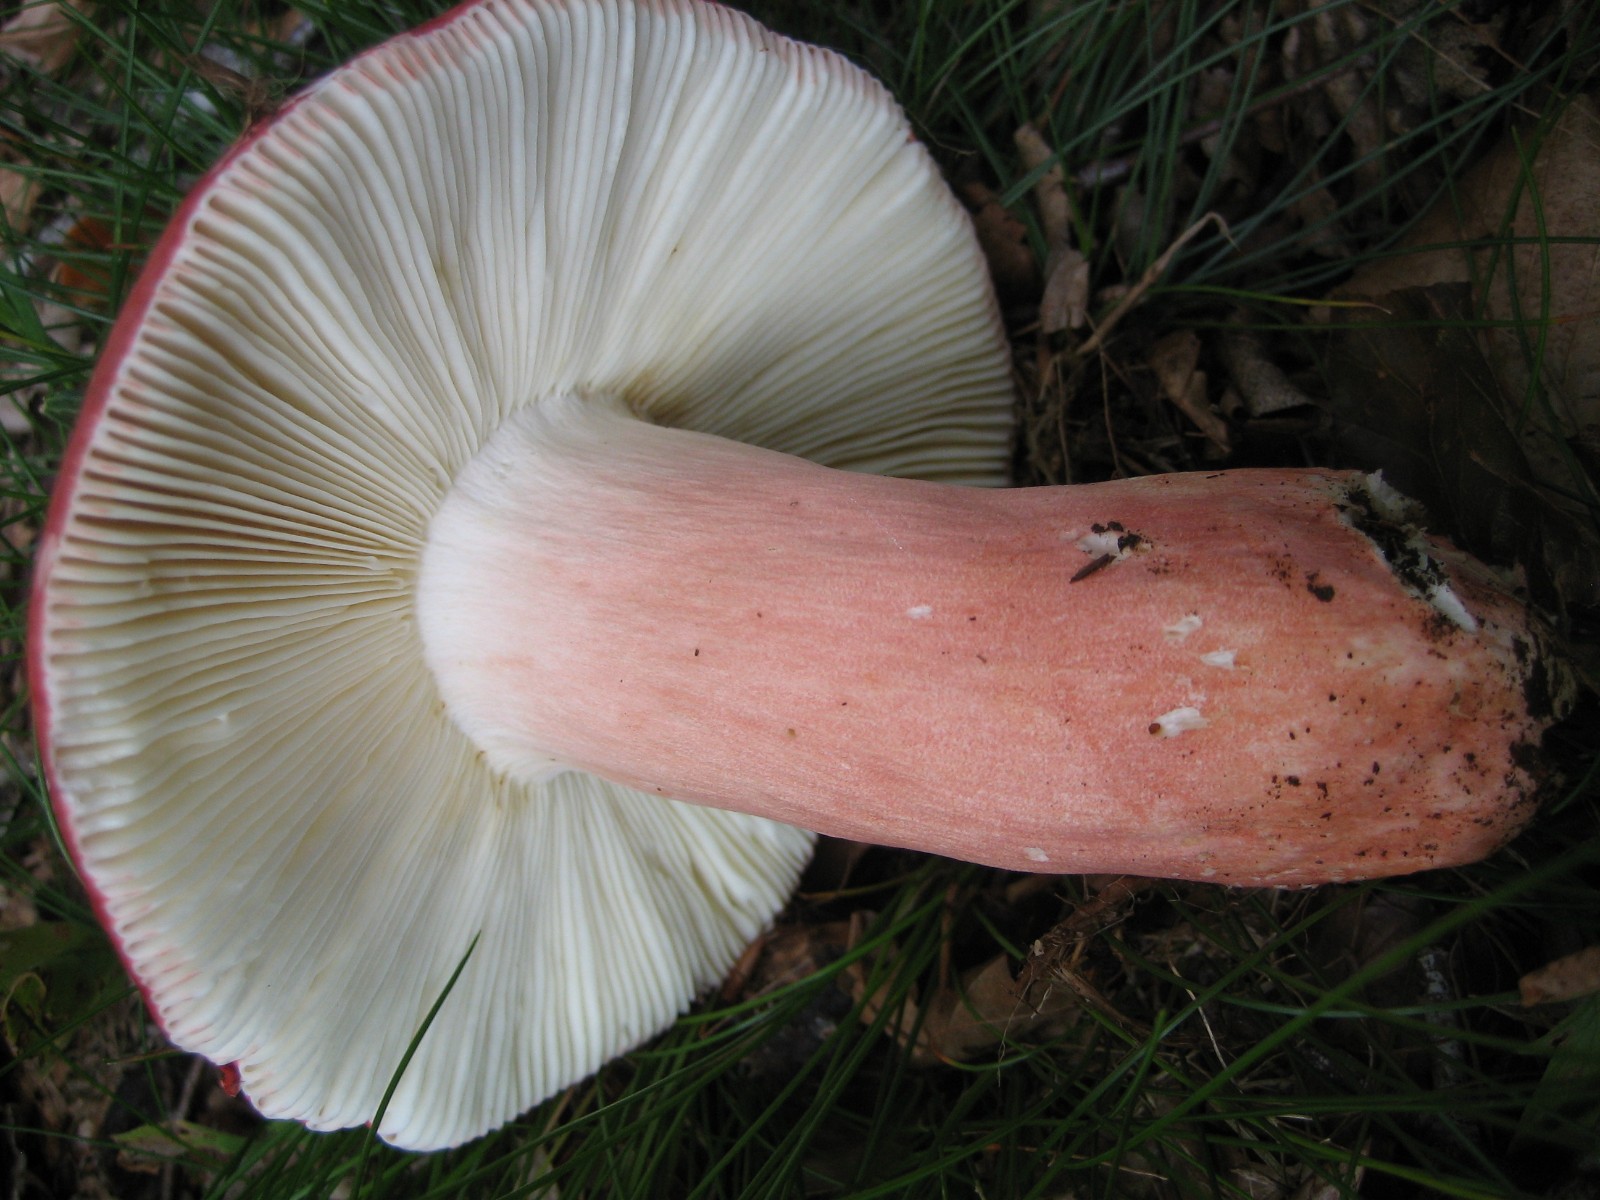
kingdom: Fungi
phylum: Basidiomycota
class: Agaricomycetes
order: Russulales
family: Russulaceae
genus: Russula
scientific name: Russula rosea
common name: fastkødet skørhat
